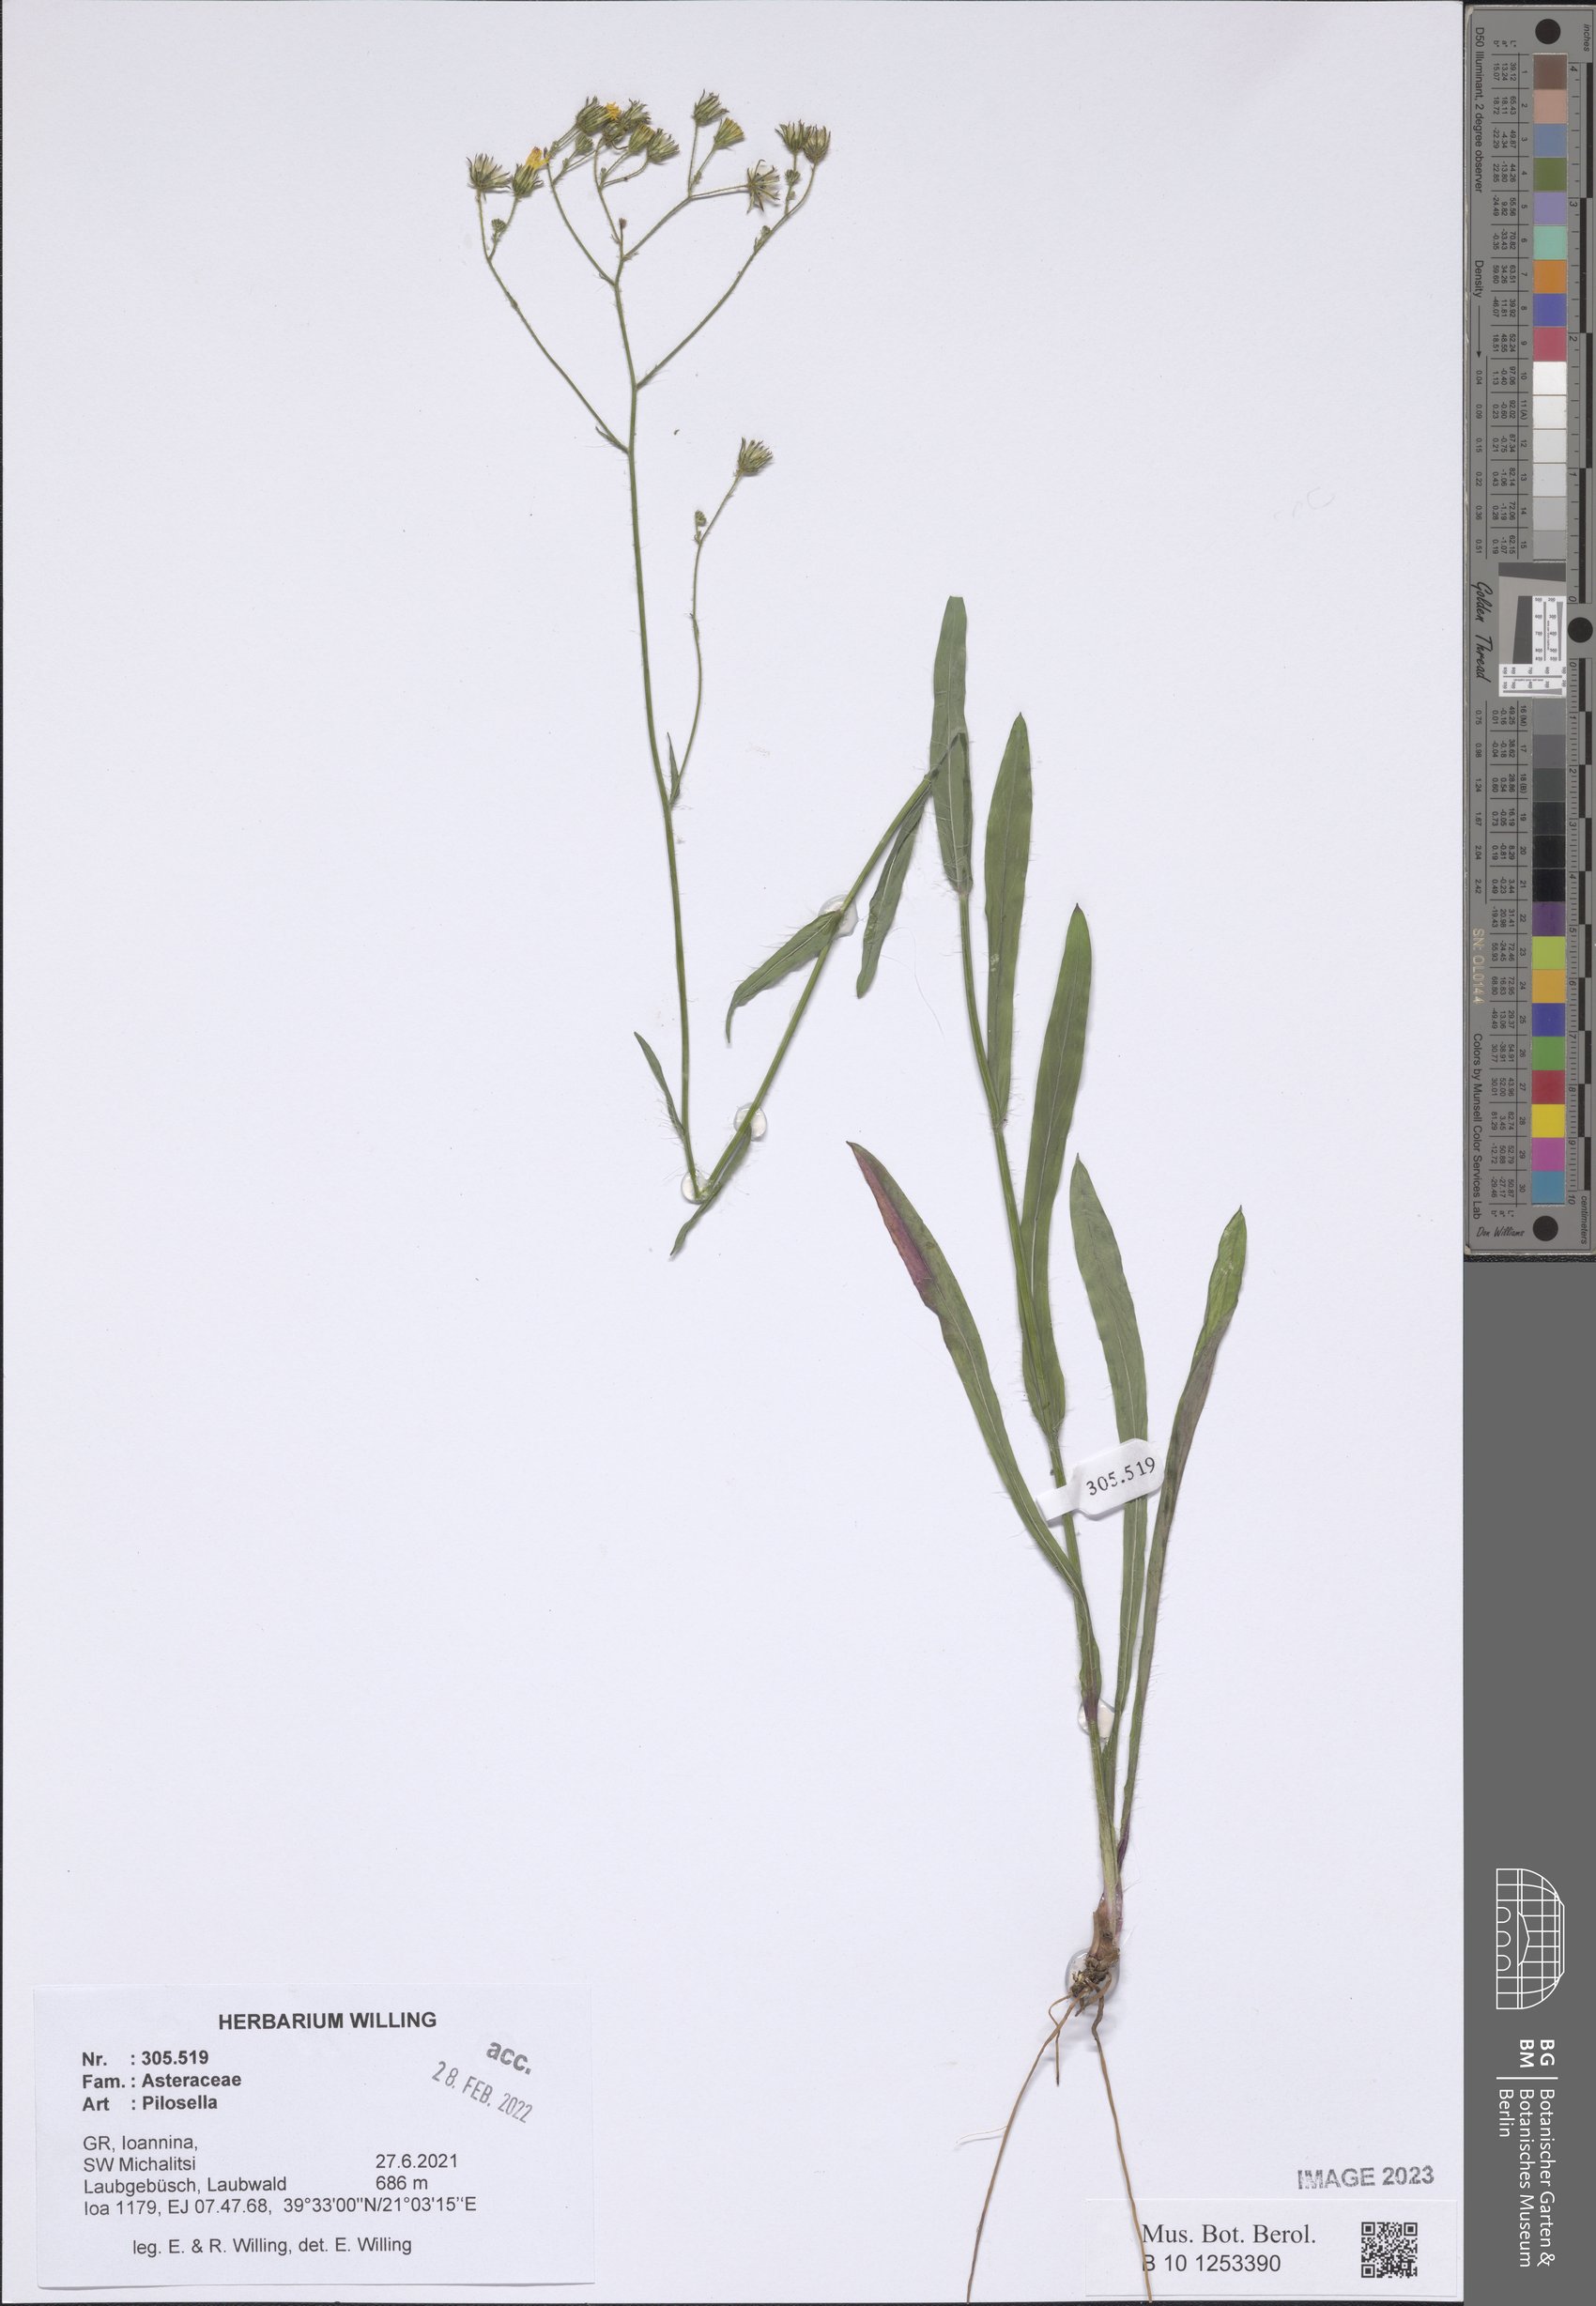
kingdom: Plantae
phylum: Tracheophyta
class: Magnoliopsida
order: Asterales
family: Asteraceae
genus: Pilosella
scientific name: Pilosella
